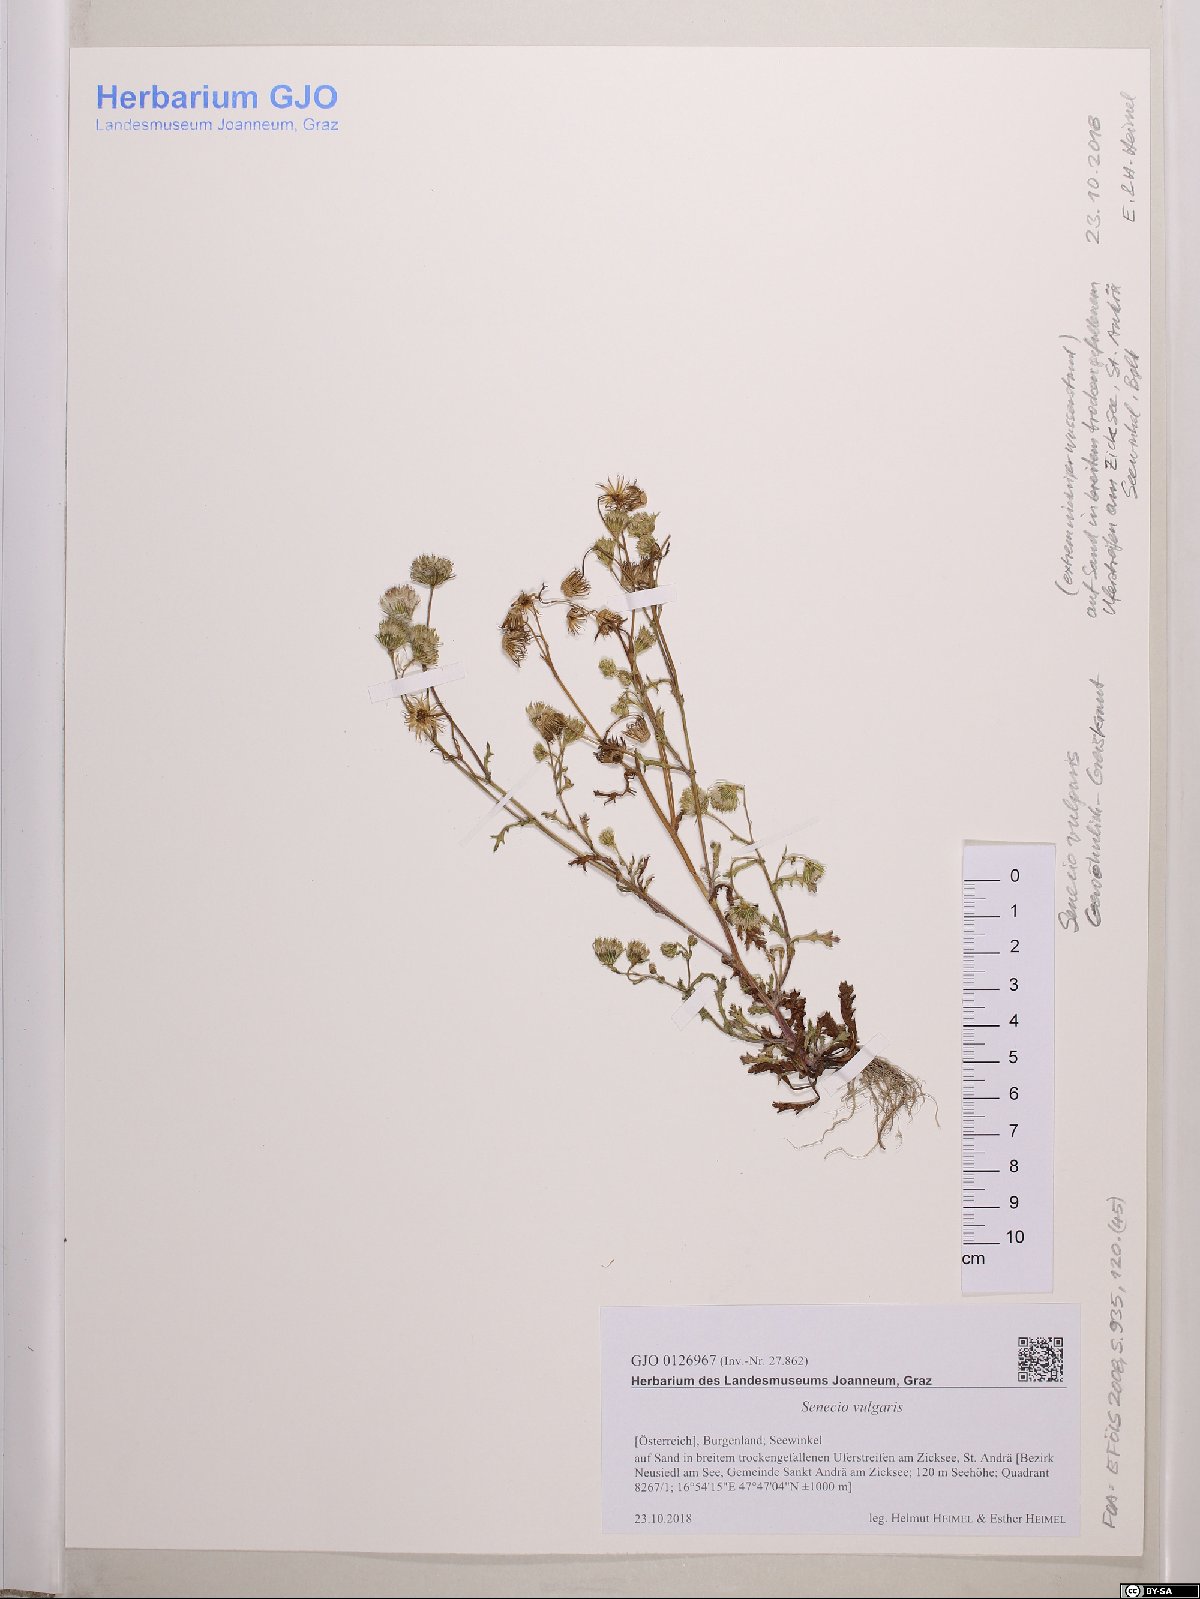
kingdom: Plantae
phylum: Tracheophyta
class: Magnoliopsida
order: Asterales
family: Asteraceae
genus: Senecio
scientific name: Senecio vulgaris
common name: Old-man-in-the-spring
